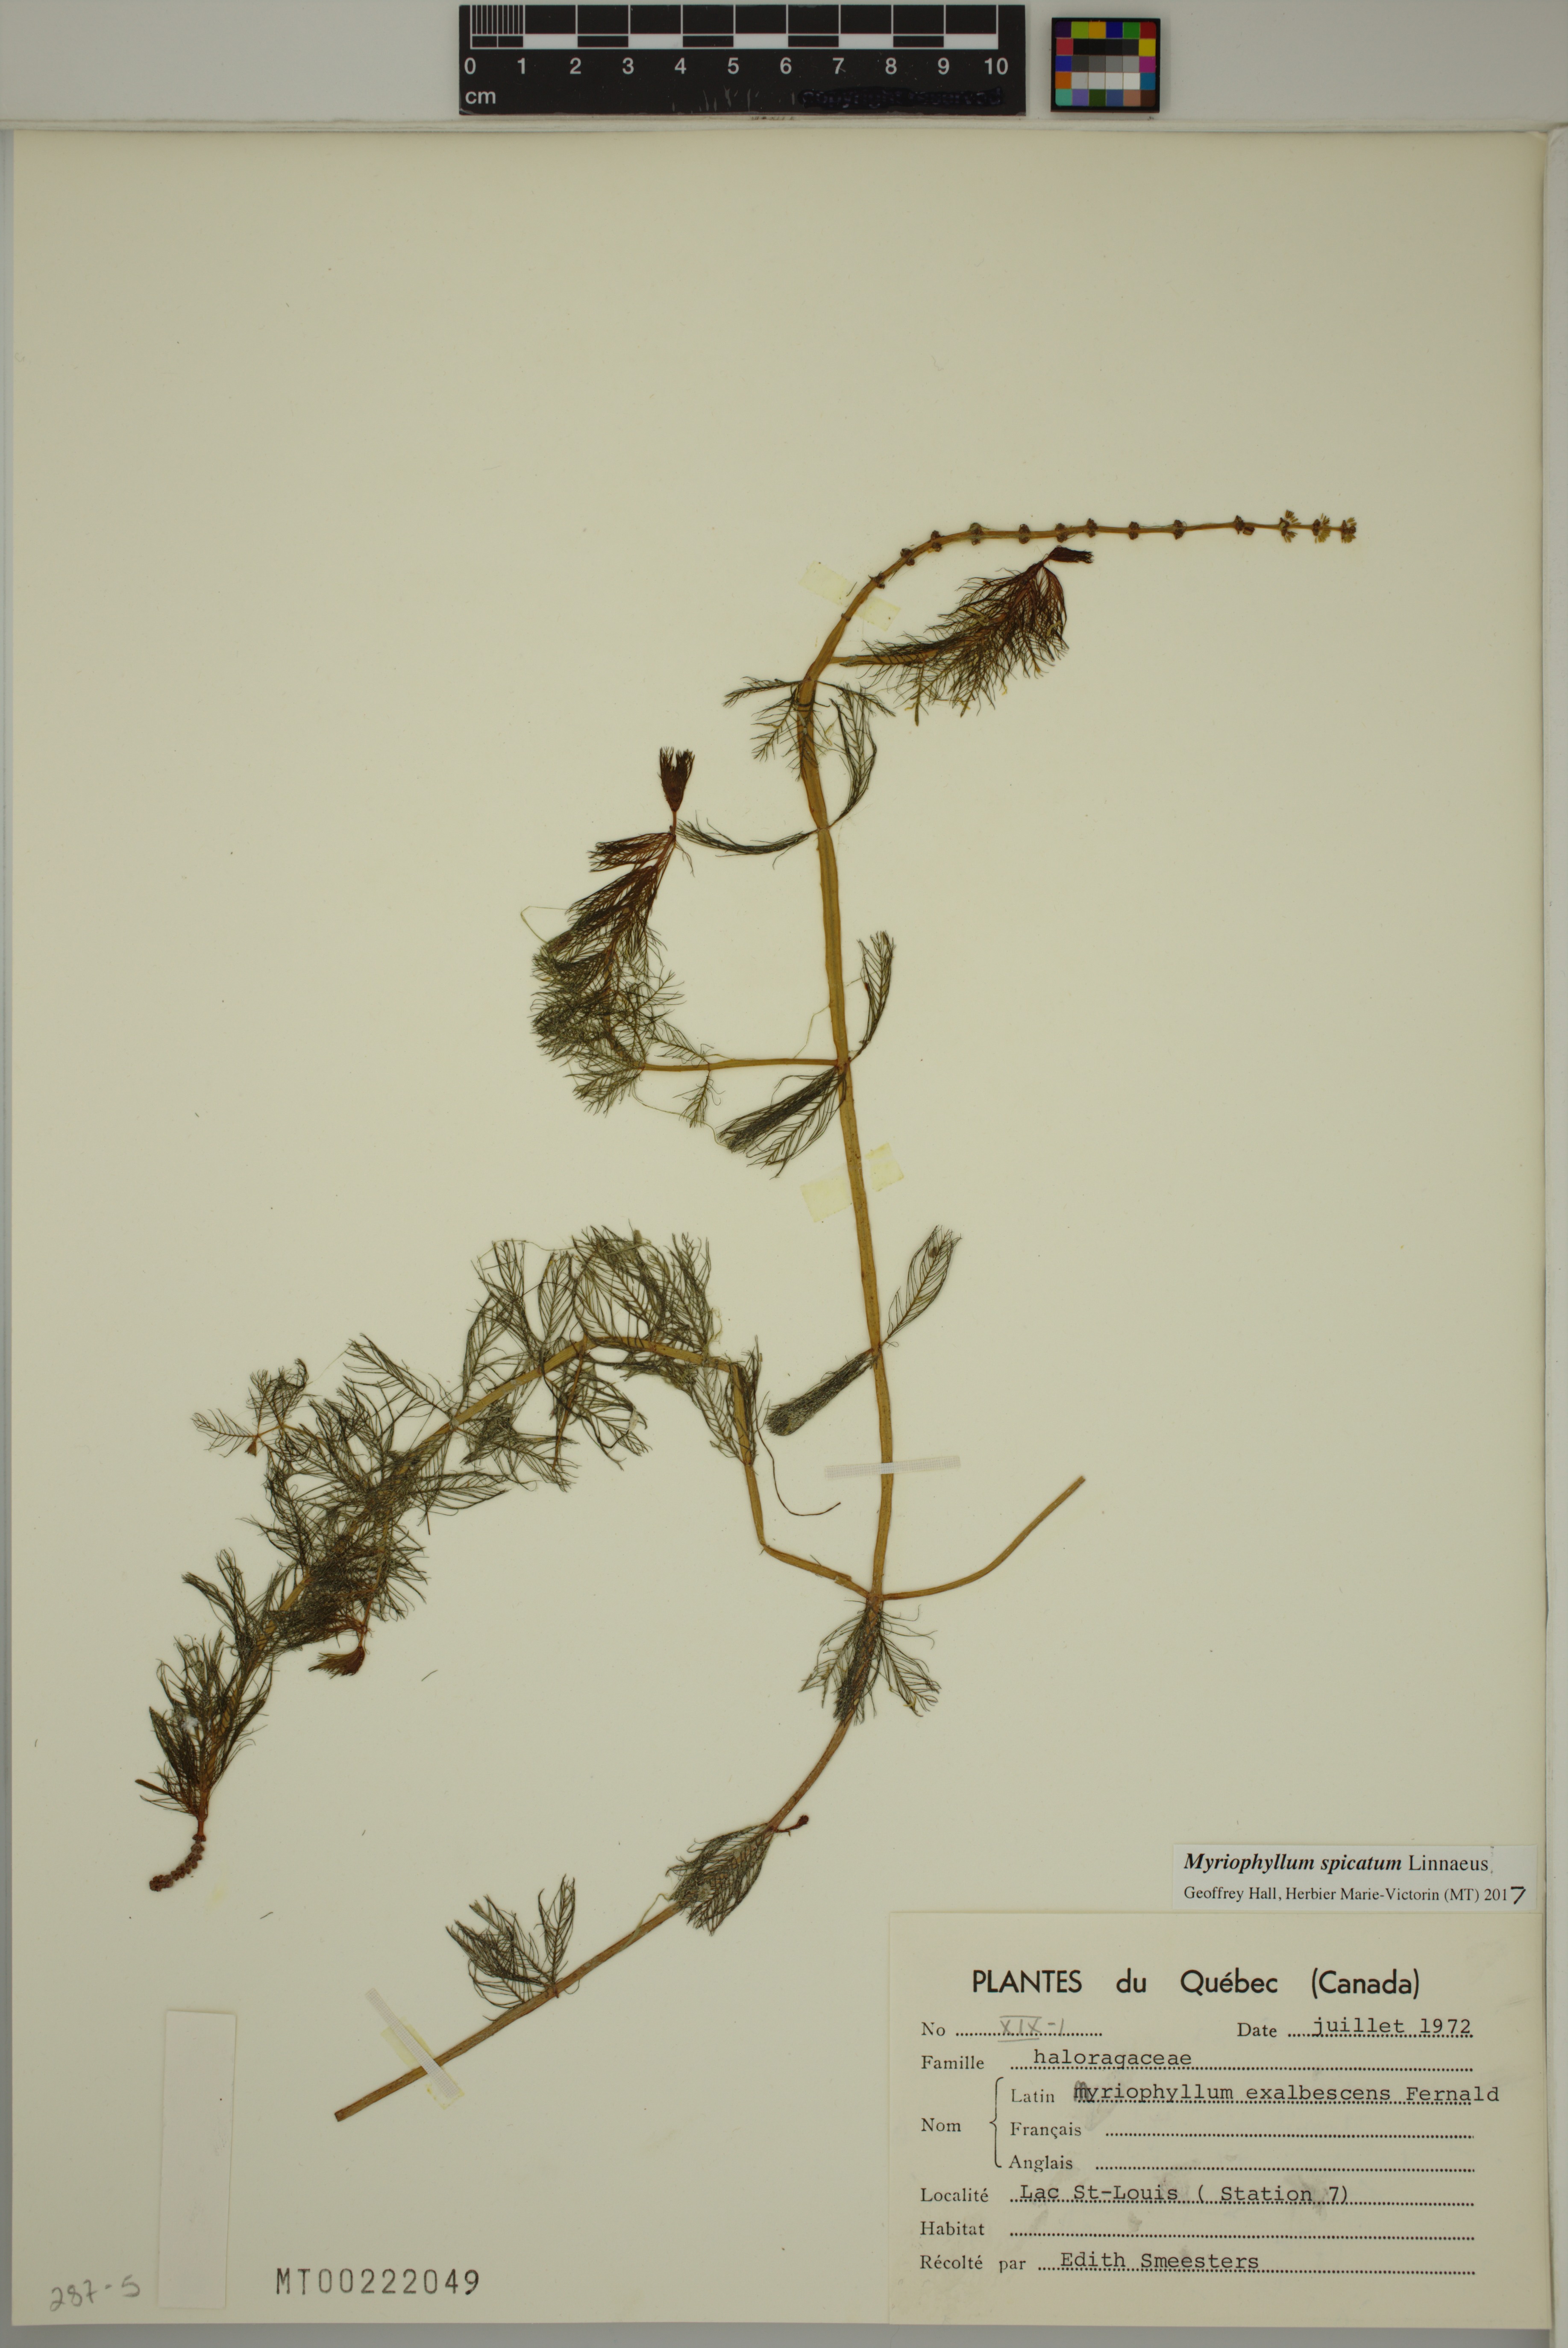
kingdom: Plantae
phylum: Tracheophyta
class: Magnoliopsida
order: Saxifragales
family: Haloragaceae
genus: Myriophyllum
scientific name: Myriophyllum spicatum
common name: Spiked water-milfoil
